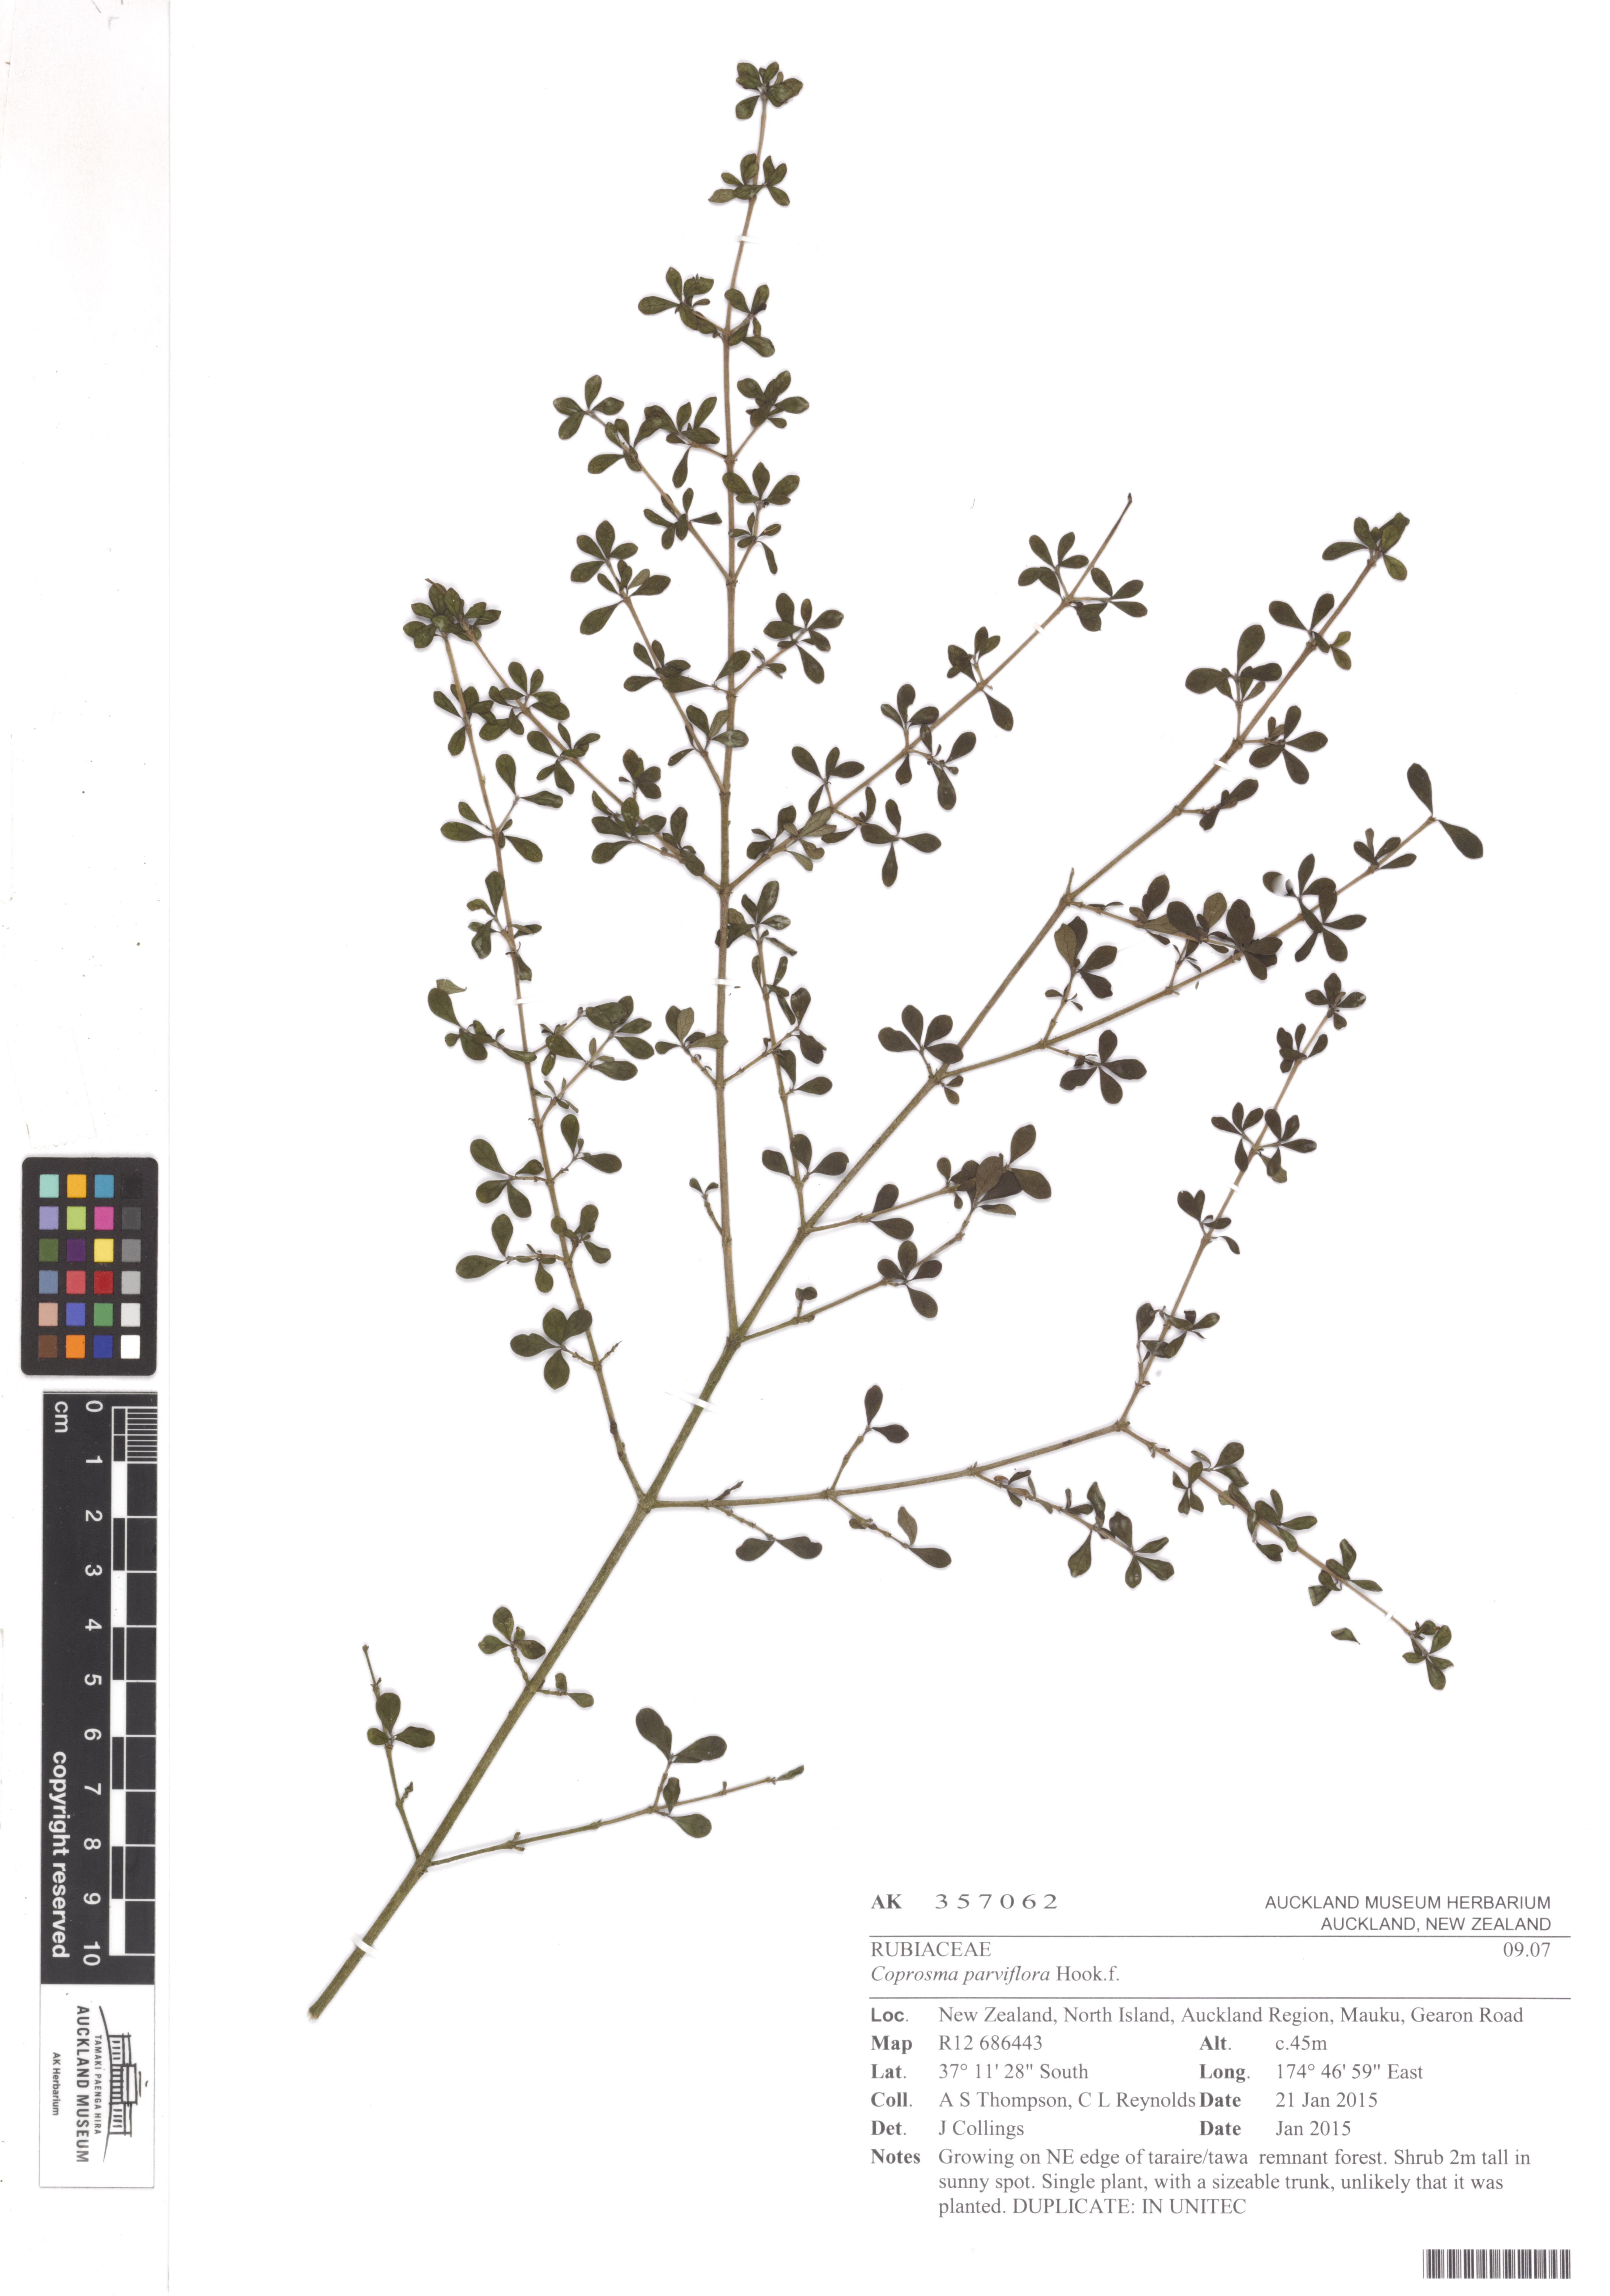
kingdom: Plantae
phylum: Tracheophyta
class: Magnoliopsida
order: Gentianales
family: Rubiaceae
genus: Coprosma
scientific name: Coprosma parviflora
